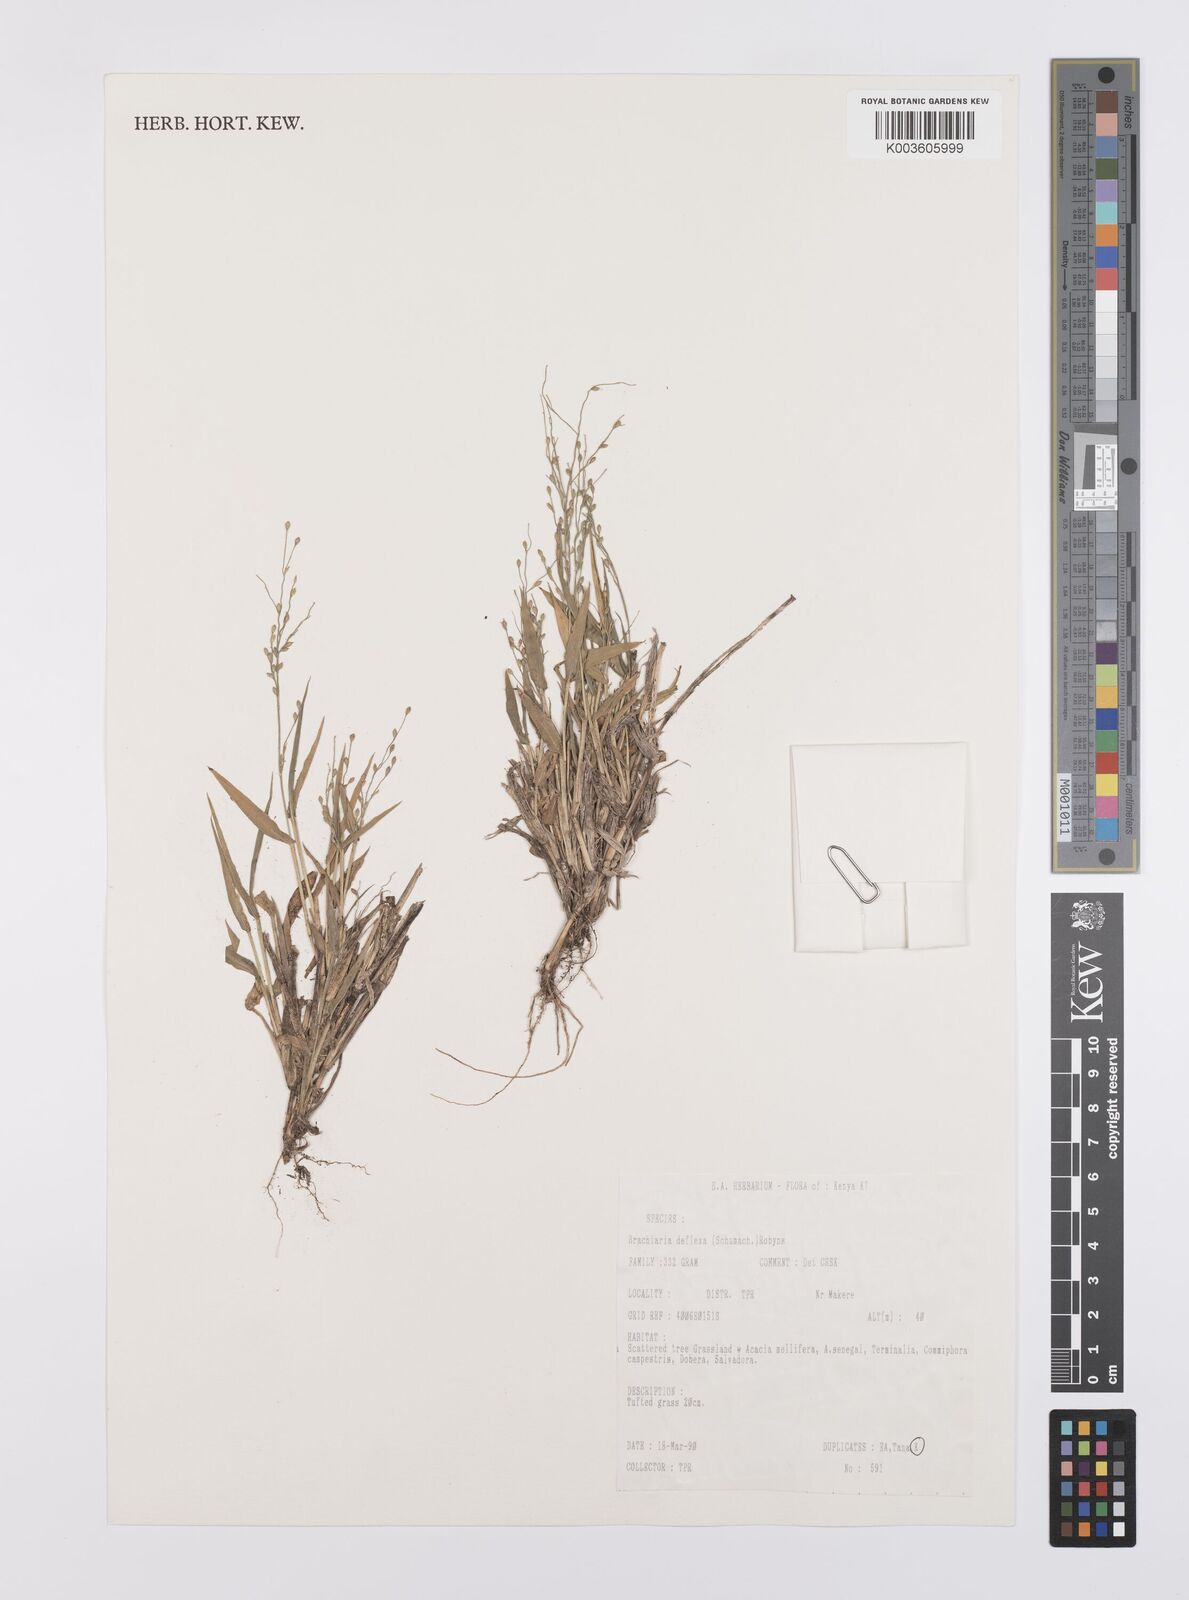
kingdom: Plantae
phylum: Tracheophyta
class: Liliopsida
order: Poales
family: Poaceae
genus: Urochloa
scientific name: Urochloa deflexa
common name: Guinea millet
